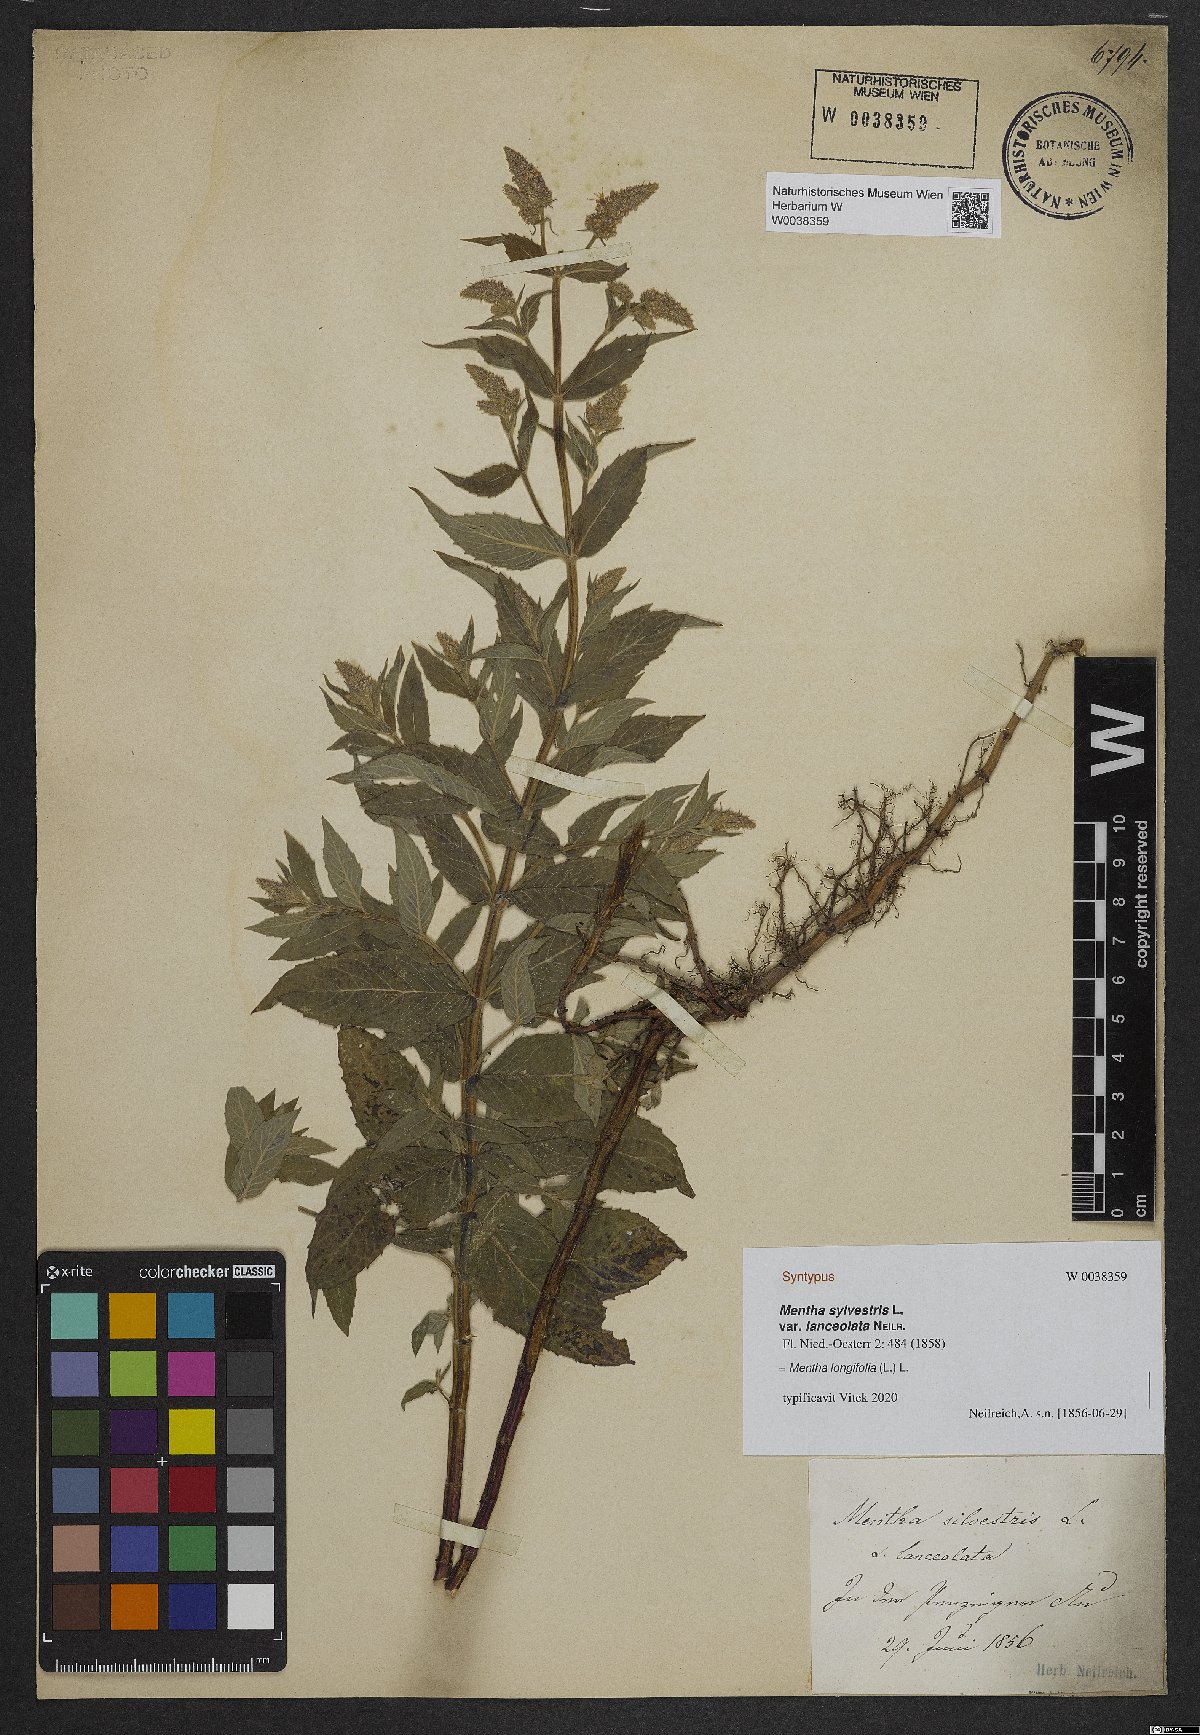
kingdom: Plantae
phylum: Tracheophyta
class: Magnoliopsida
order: Lamiales
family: Lamiaceae
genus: Mentha
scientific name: Mentha
